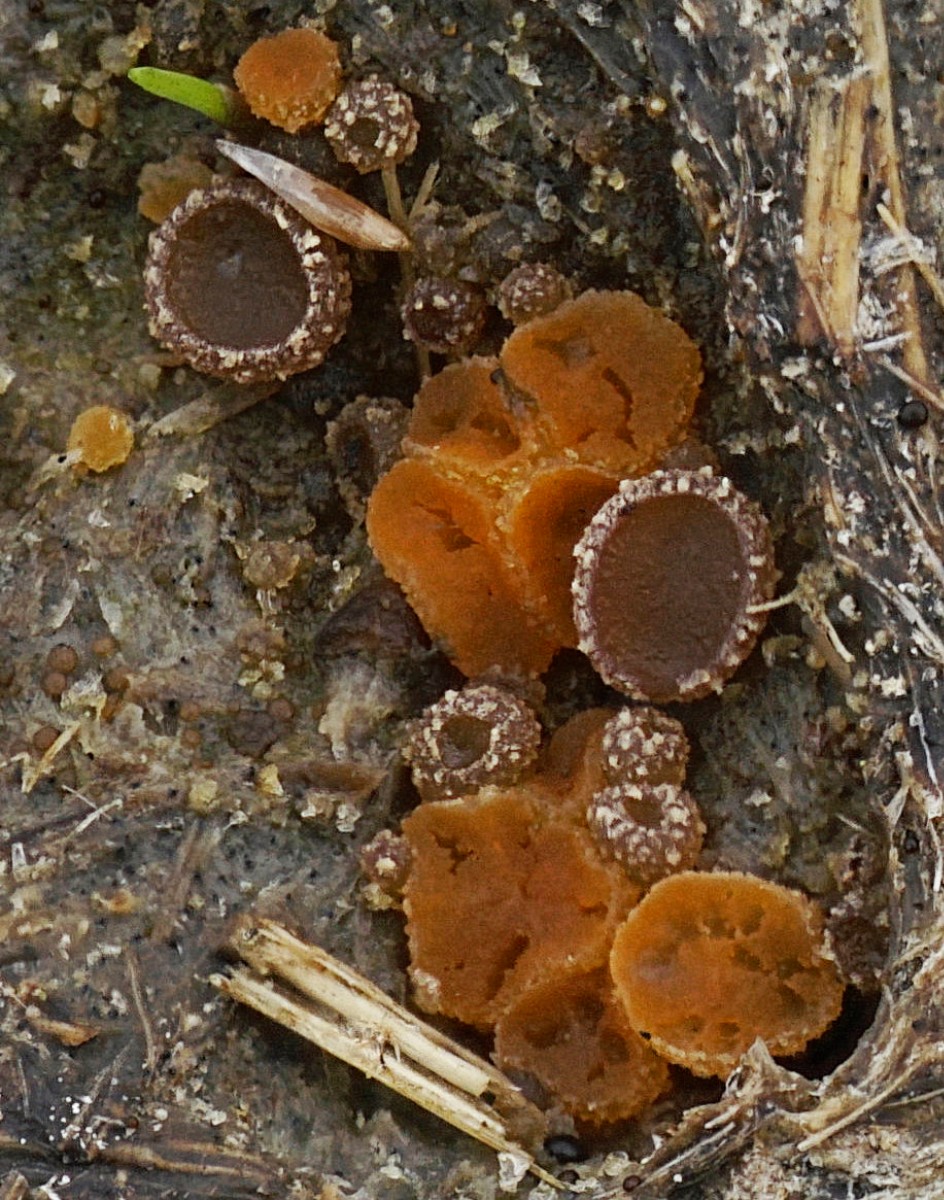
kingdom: Fungi
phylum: Ascomycota
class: Pezizomycetes
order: Pezizales
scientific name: Pezizales
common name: bægersvampordenen
